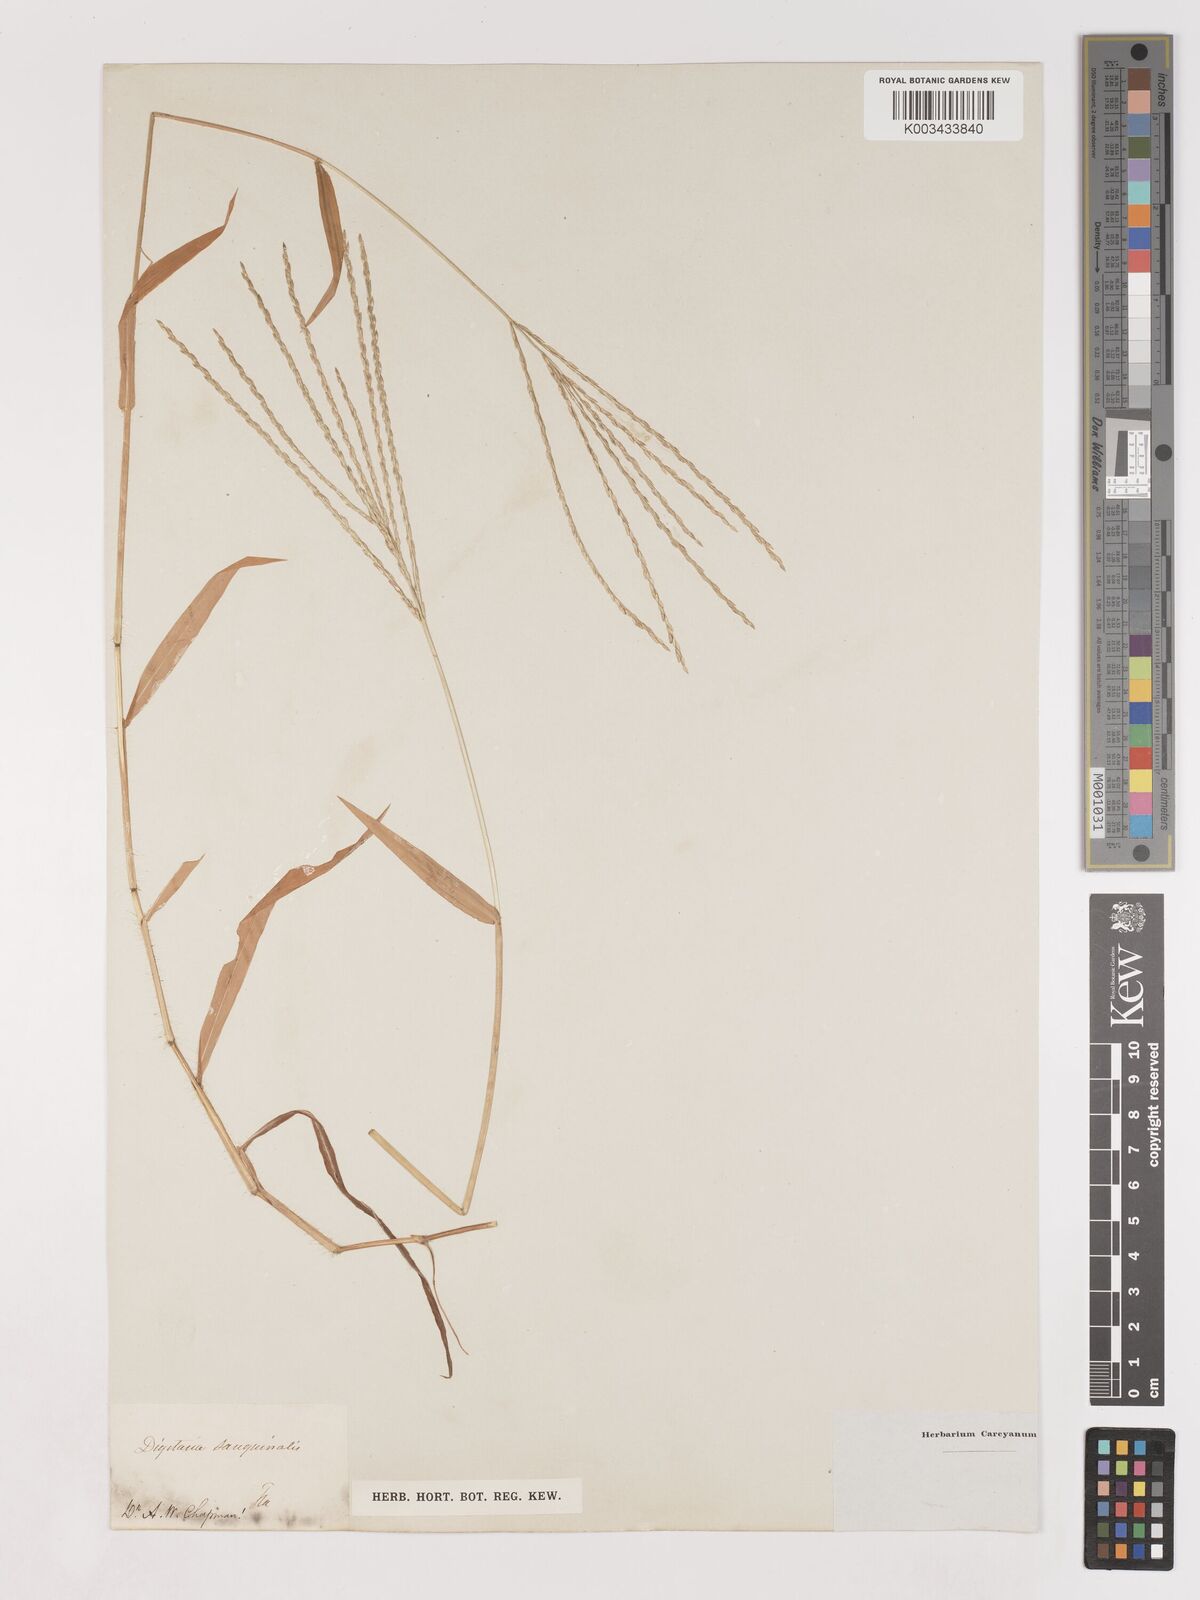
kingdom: Plantae
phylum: Tracheophyta
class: Liliopsida
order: Poales
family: Poaceae
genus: Digitaria
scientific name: Digitaria ciliaris
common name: Tropical finger-grass
